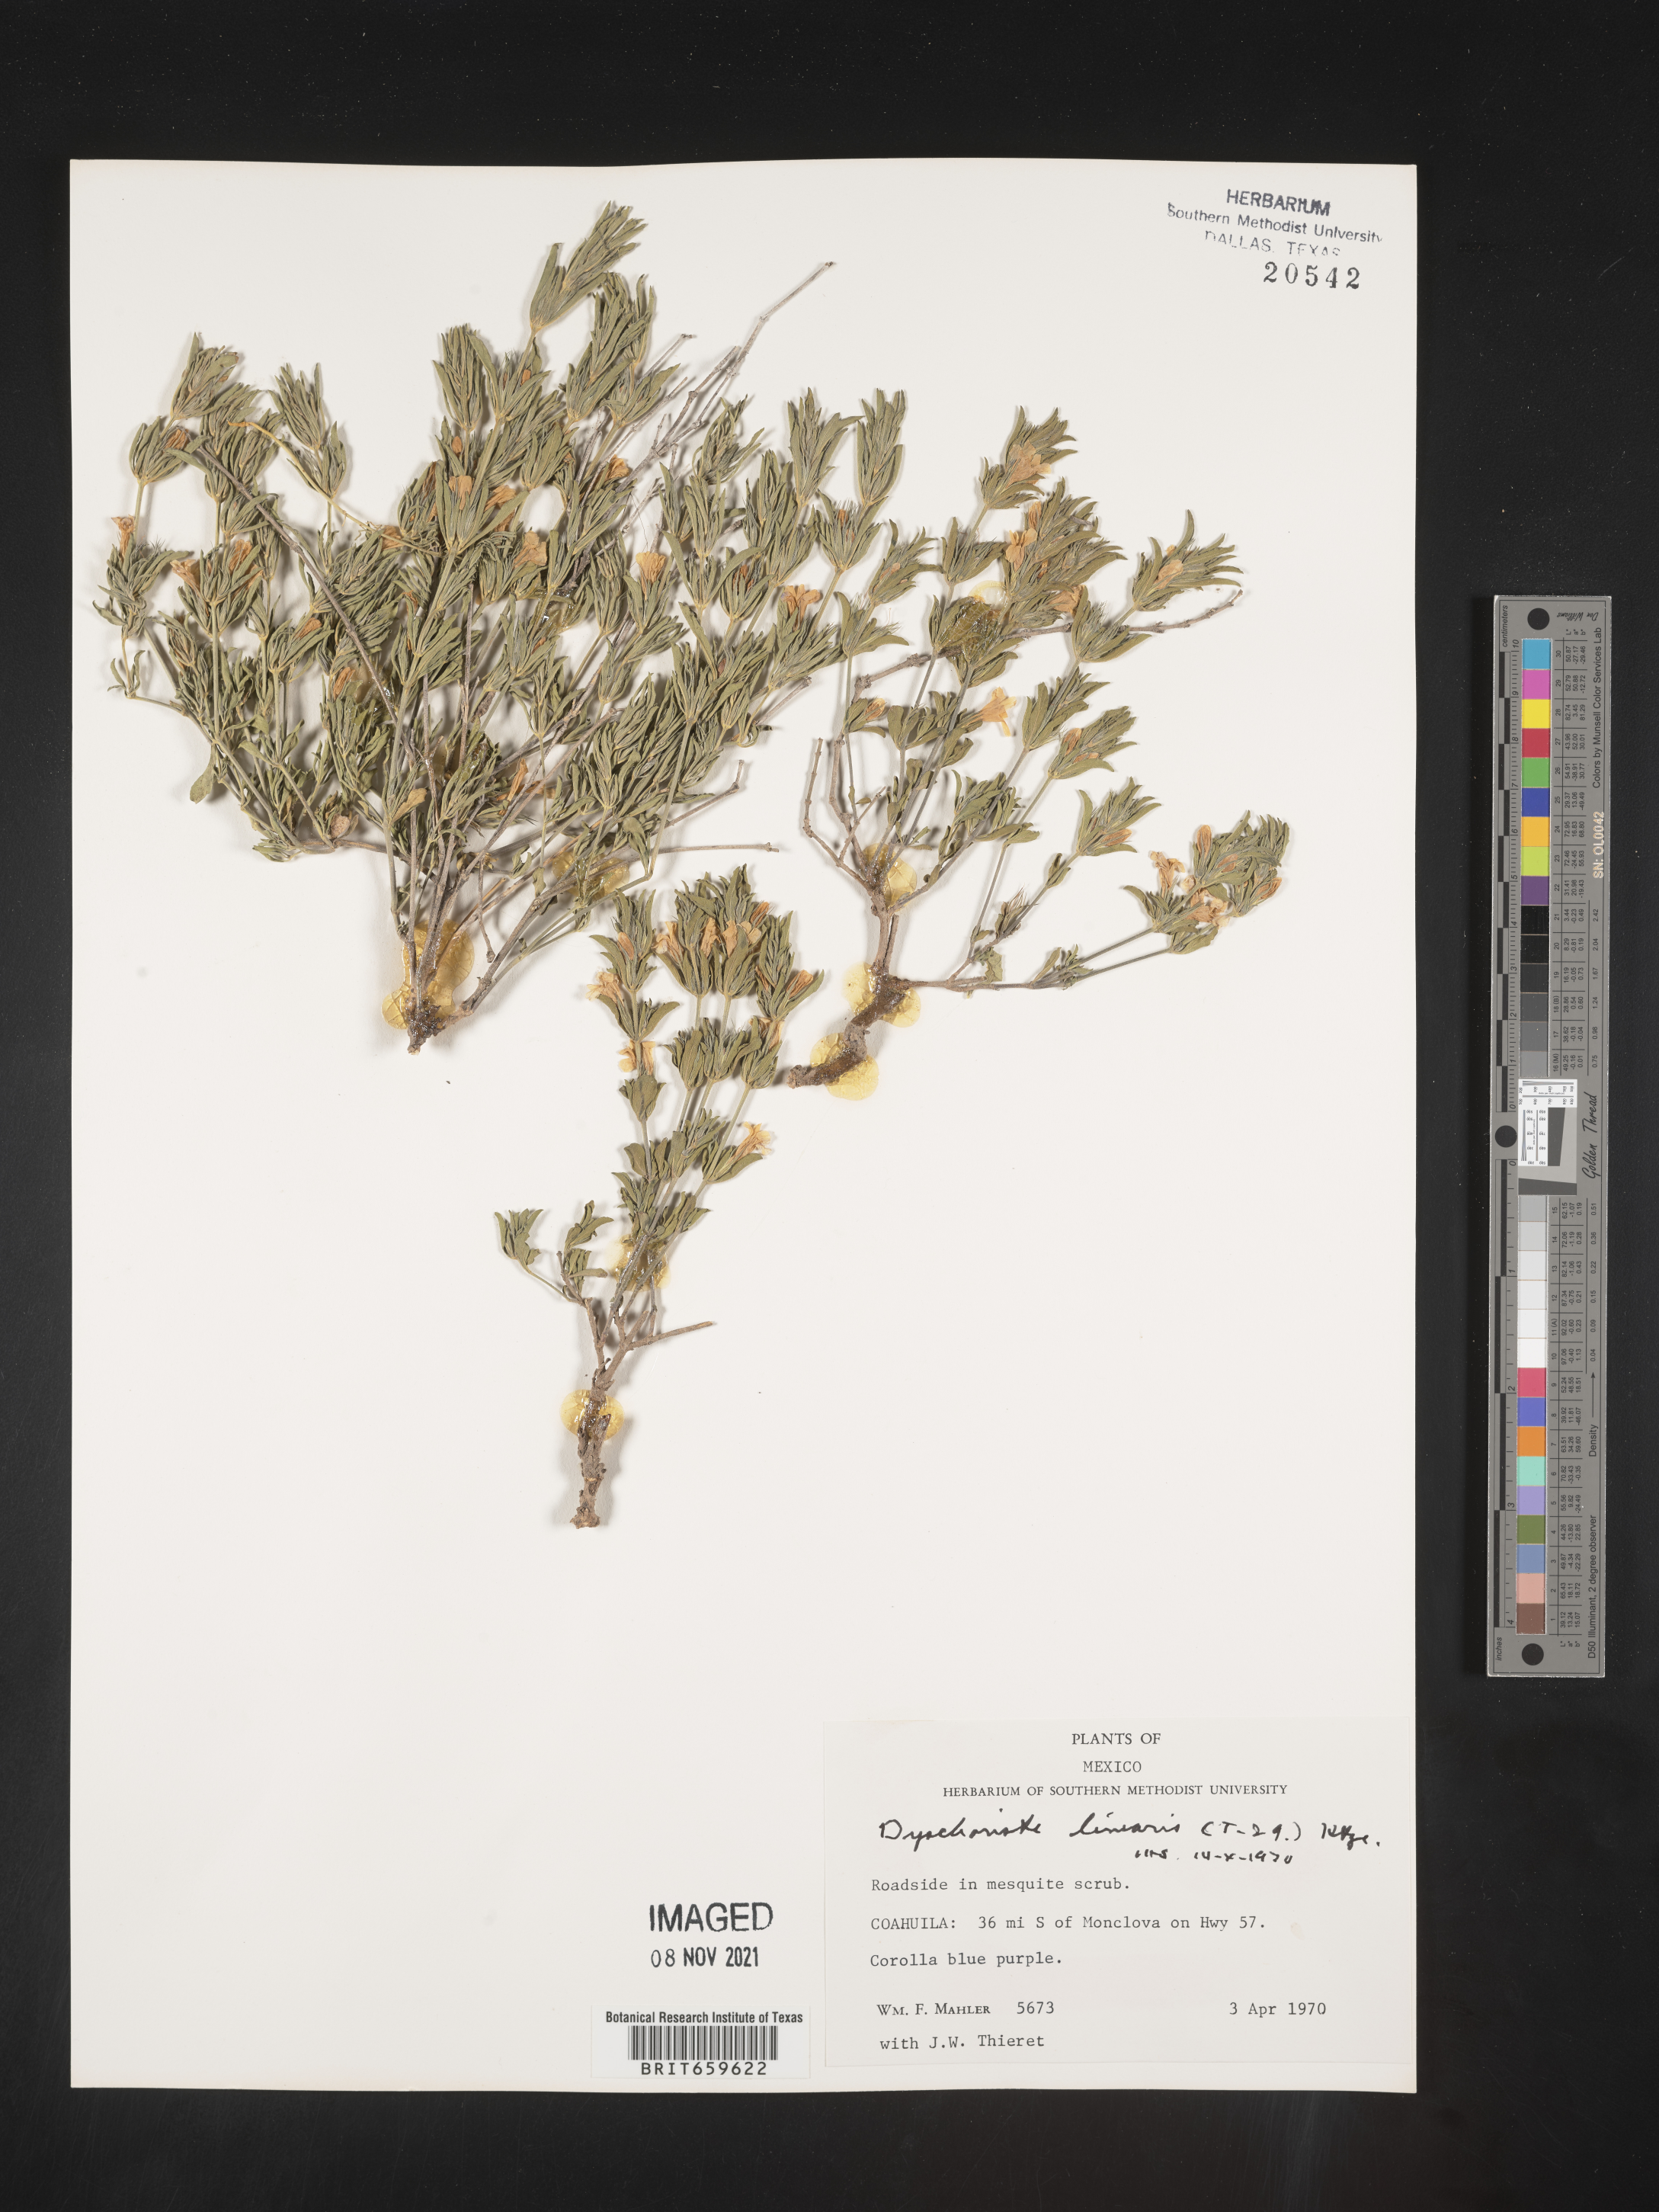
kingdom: Plantae
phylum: Tracheophyta
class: Magnoliopsida
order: Lamiales
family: Acanthaceae
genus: Dyschoriste
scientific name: Dyschoriste
